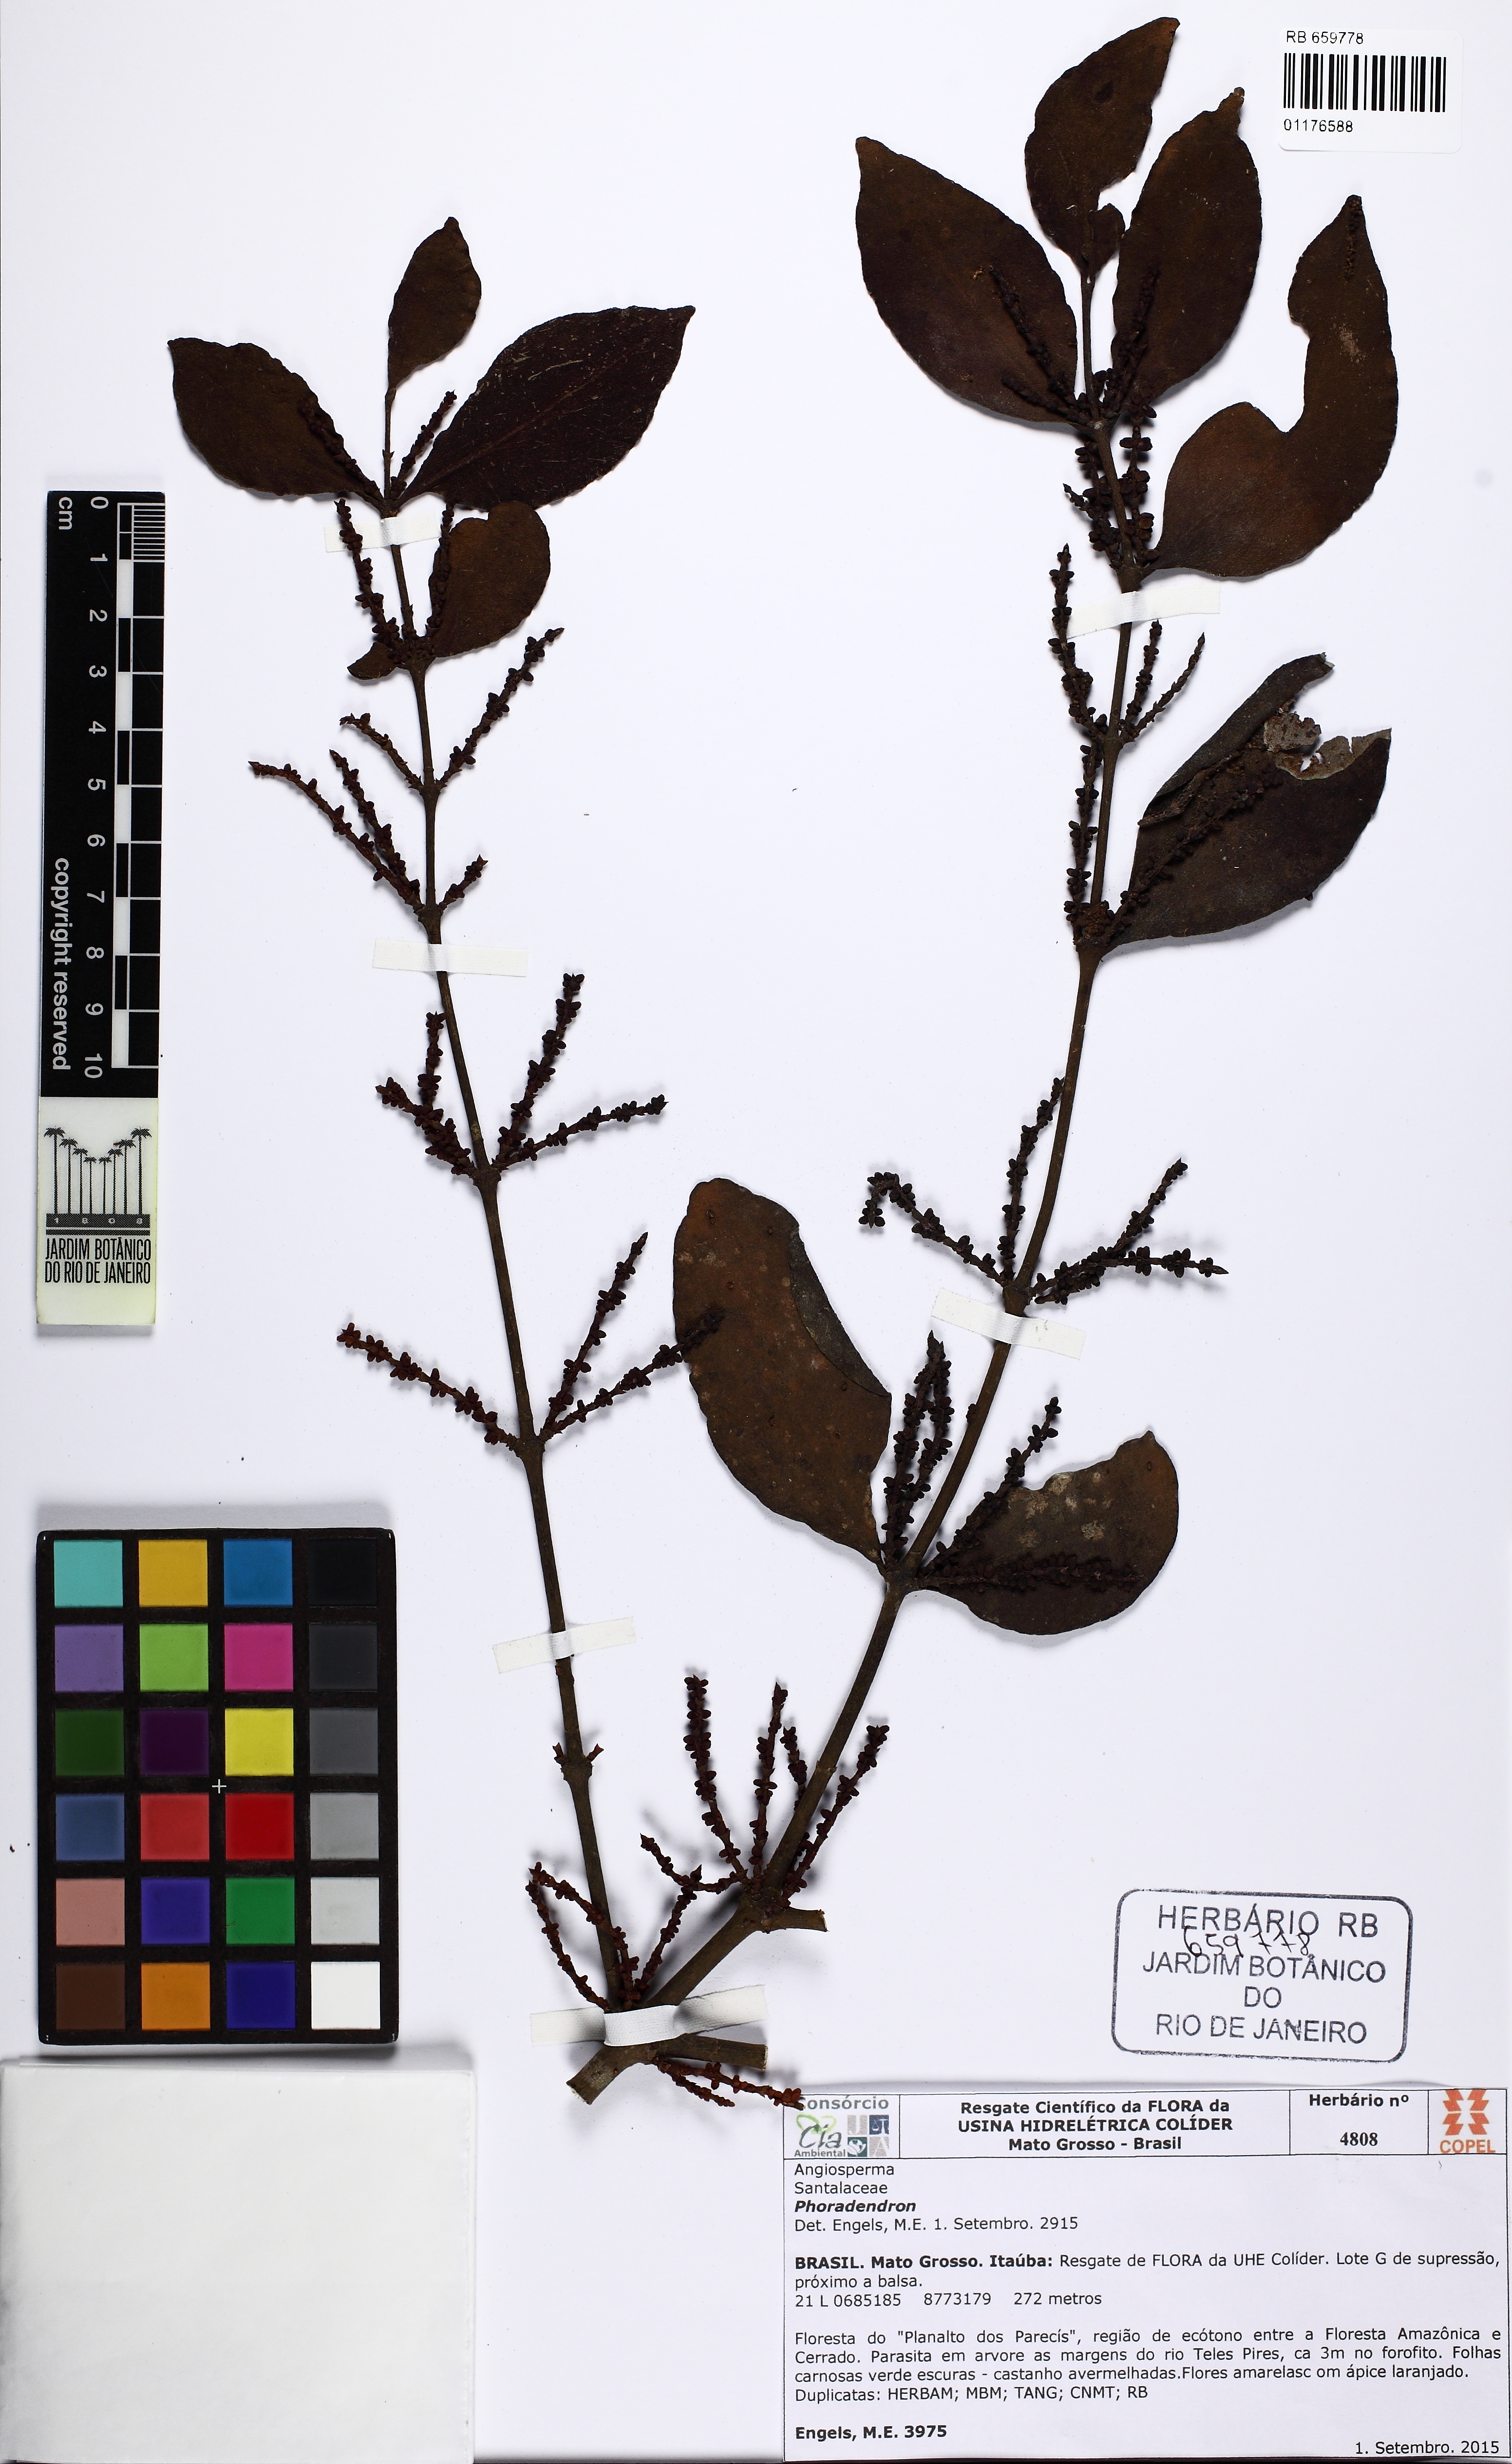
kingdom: Plantae
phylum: Tracheophyta
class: Magnoliopsida
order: Santalales
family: Viscaceae
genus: Phoradendron
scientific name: Phoradendron piperoides
